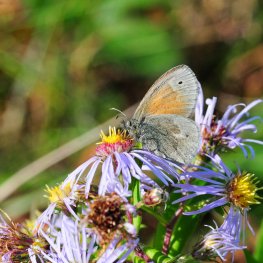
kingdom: Animalia
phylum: Arthropoda
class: Insecta
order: Lepidoptera
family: Nymphalidae
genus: Coenonympha
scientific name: Coenonympha tullia
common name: Large Heath
